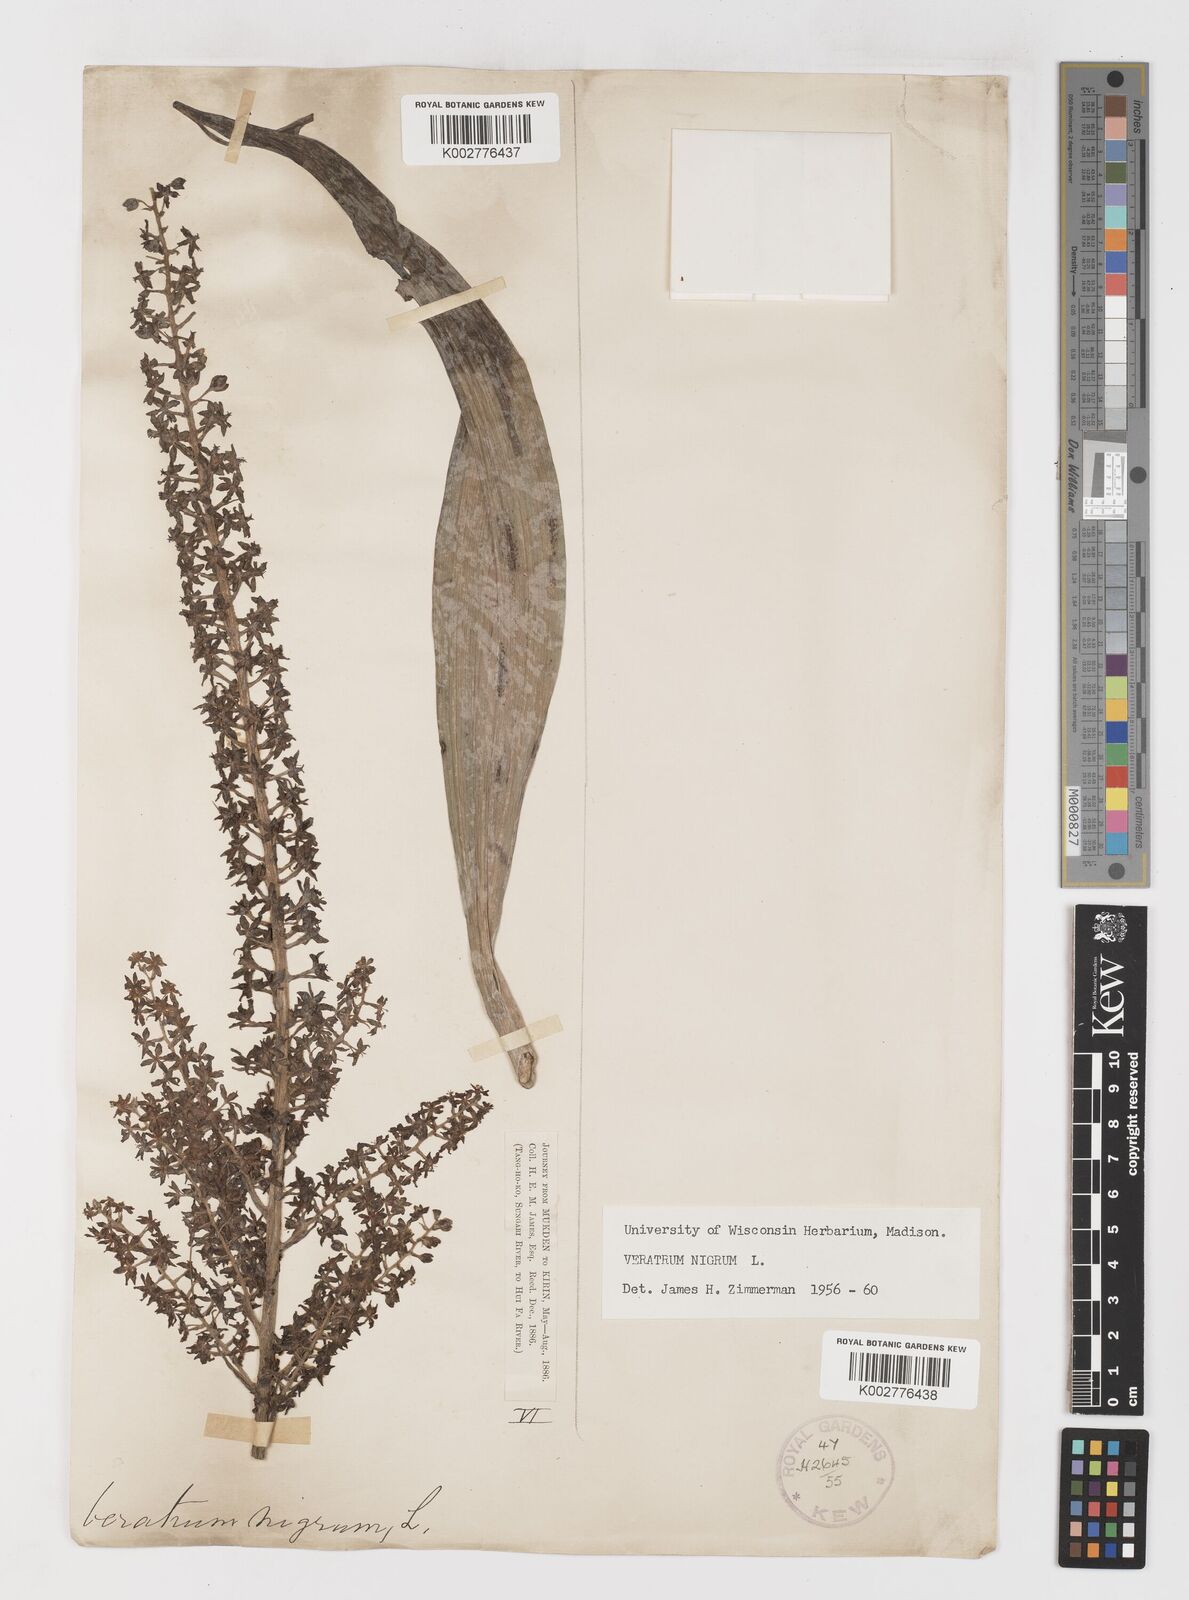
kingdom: Plantae
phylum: Tracheophyta
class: Liliopsida
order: Liliales
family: Melanthiaceae
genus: Veratrum
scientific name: Veratrum nigrum
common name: Black veratrum
